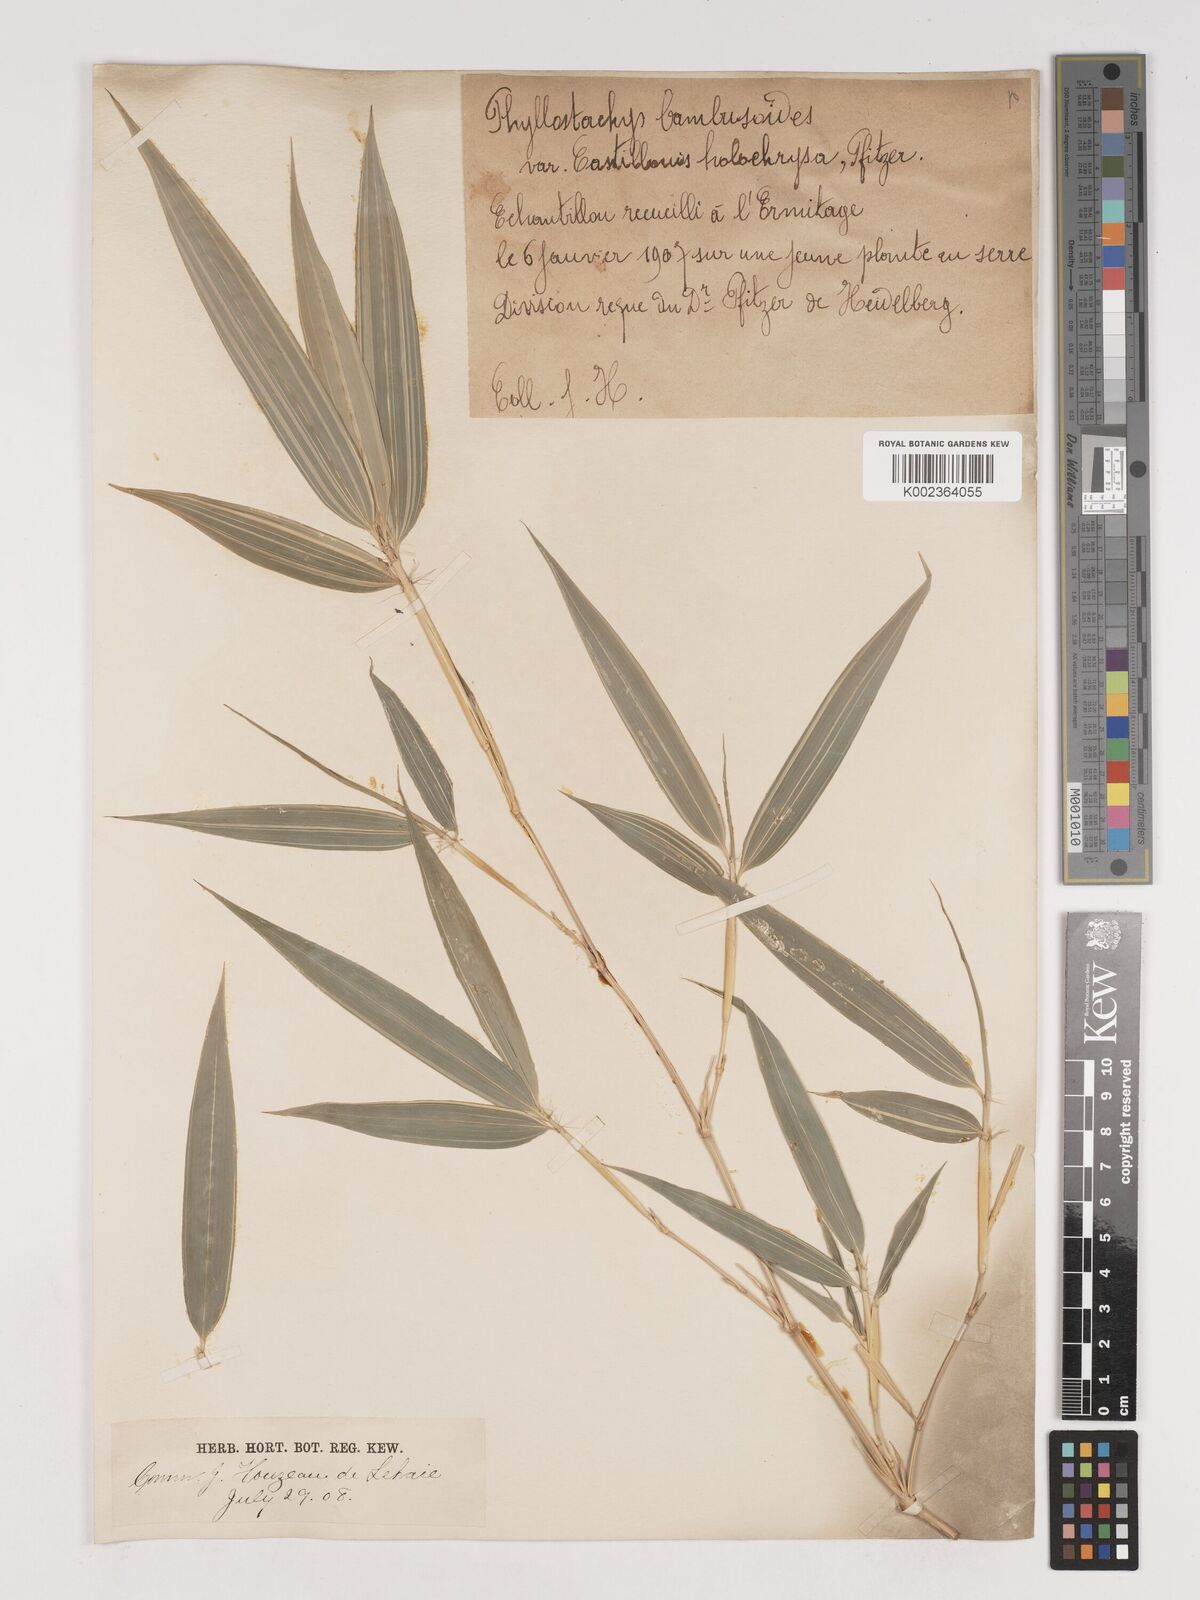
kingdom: Plantae
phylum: Tracheophyta
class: Liliopsida
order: Poales
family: Poaceae
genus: Phyllostachys
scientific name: Phyllostachys sulphurea
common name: Sulphur bamboo
